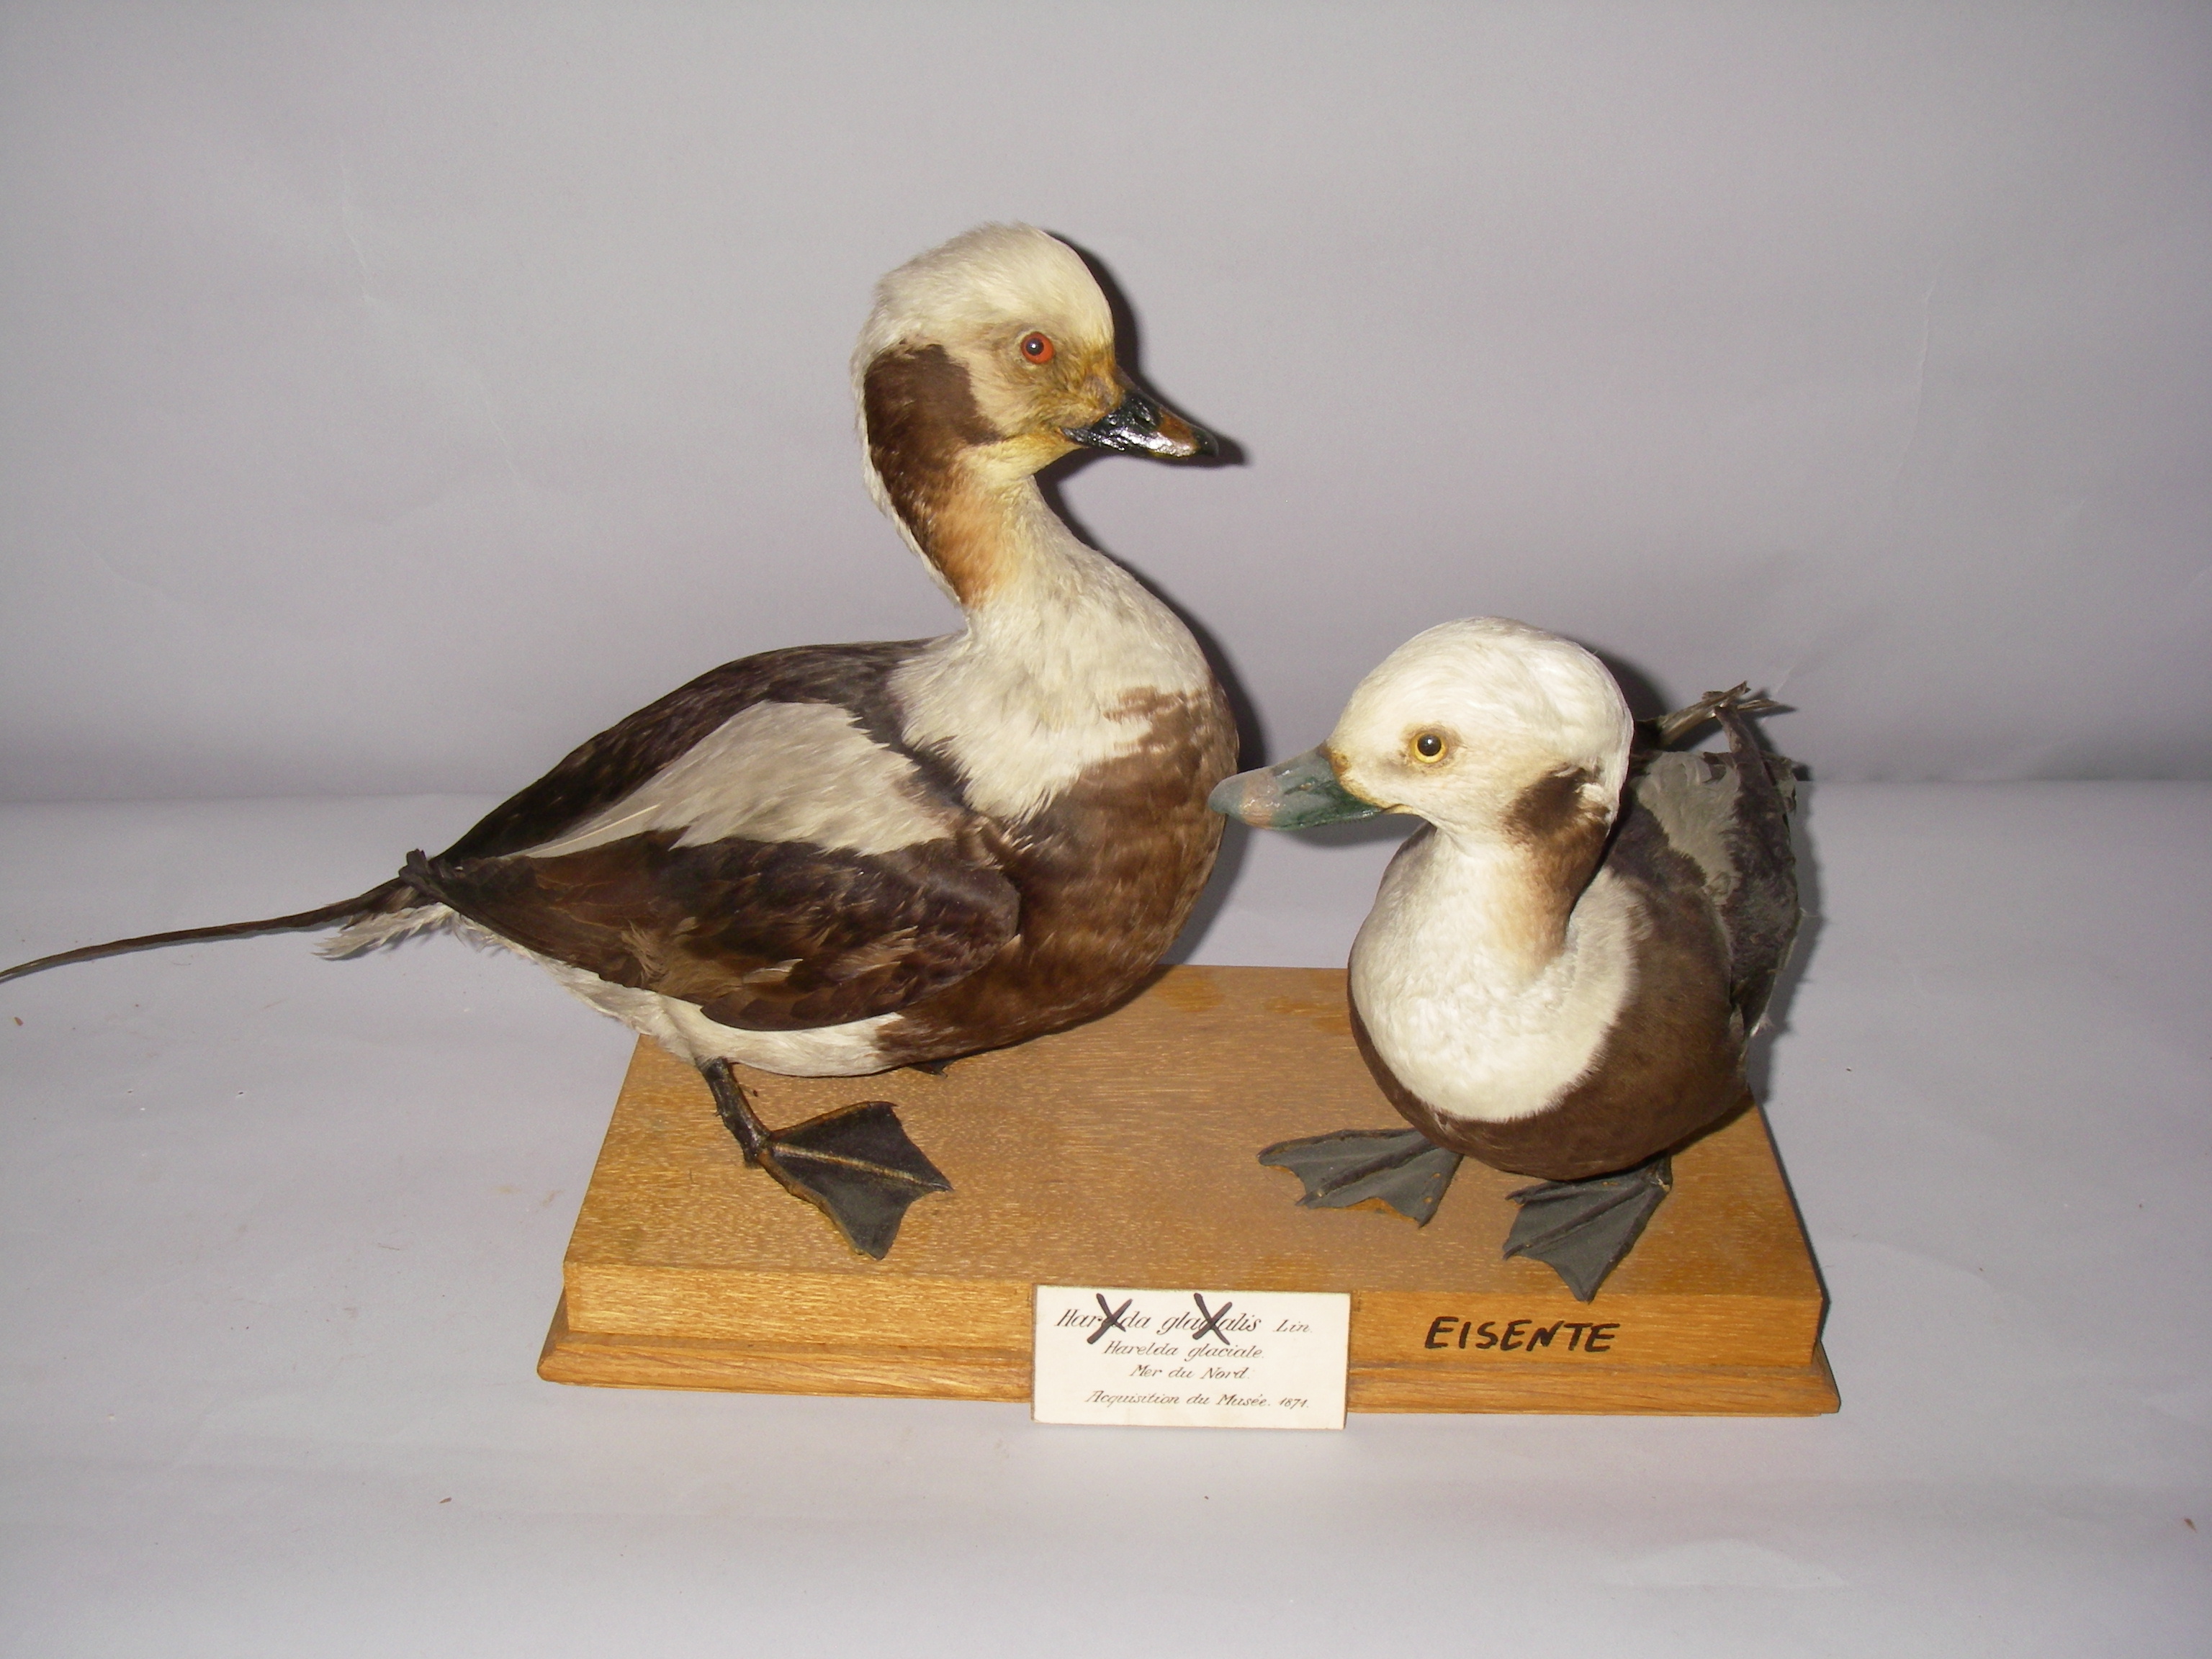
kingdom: Animalia
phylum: Chordata
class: Aves
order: Anseriformes
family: Anatidae
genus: Clangula
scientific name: Clangula hyemalis
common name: Long-tailed duck
